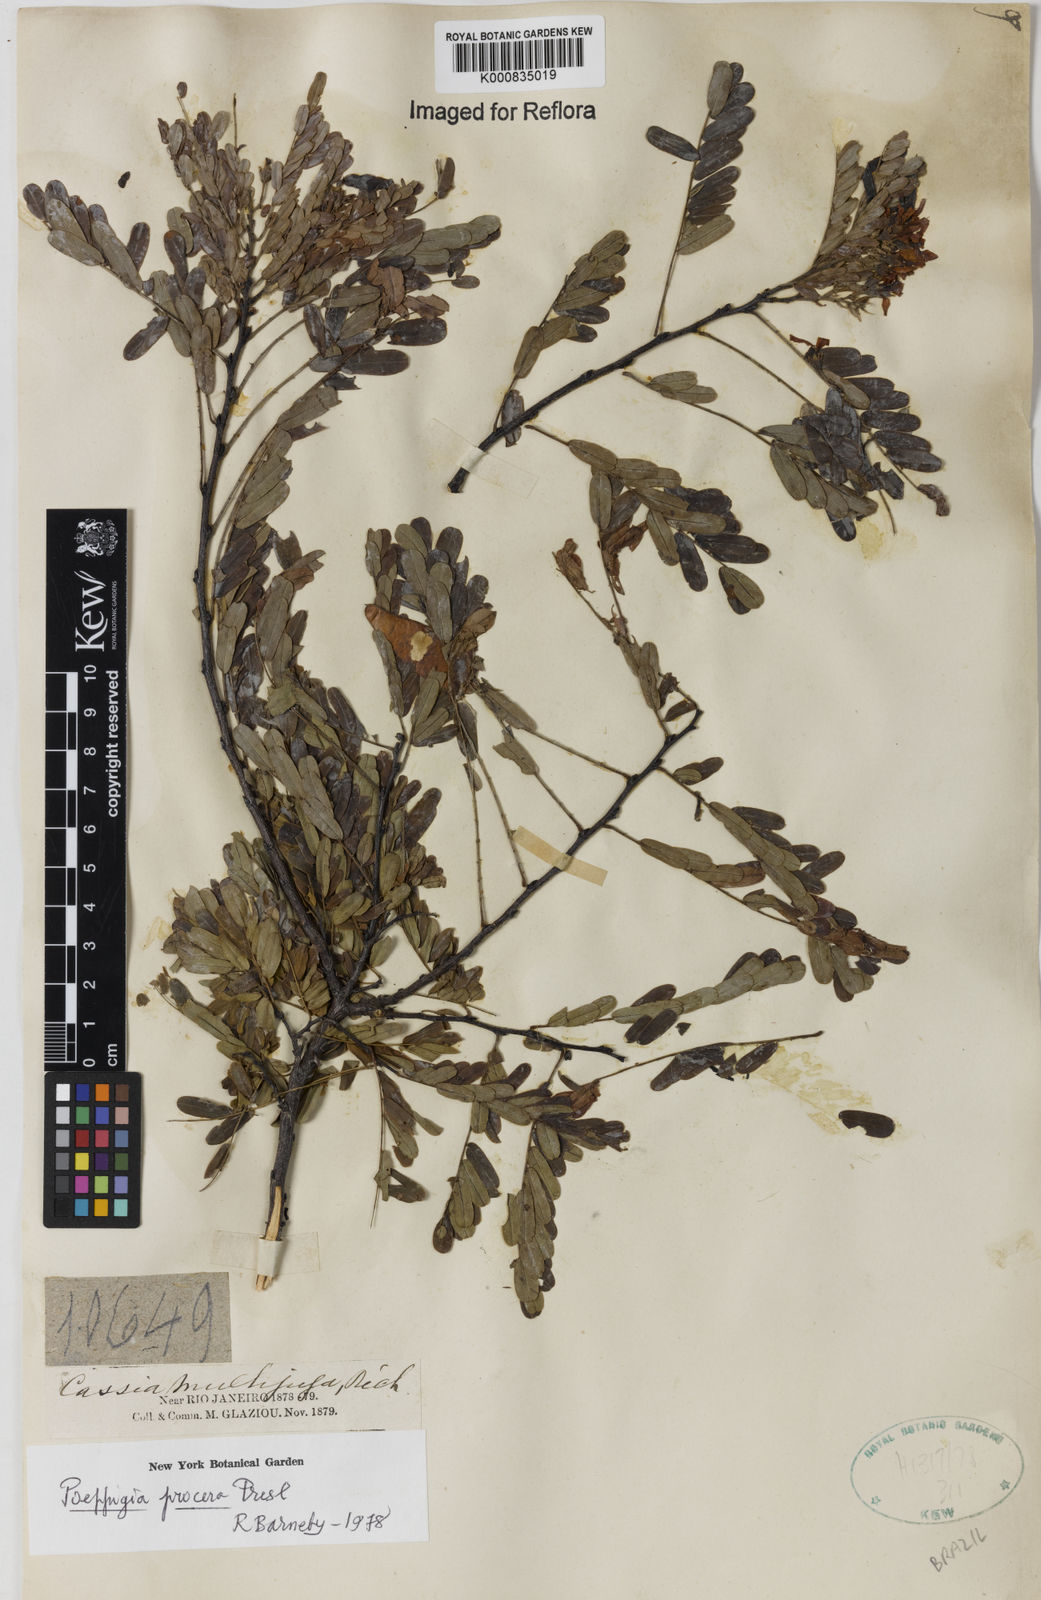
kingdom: Plantae
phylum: Tracheophyta
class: Magnoliopsida
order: Fabales
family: Fabaceae
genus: Senna
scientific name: Senna multijuga
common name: False sicklepod
